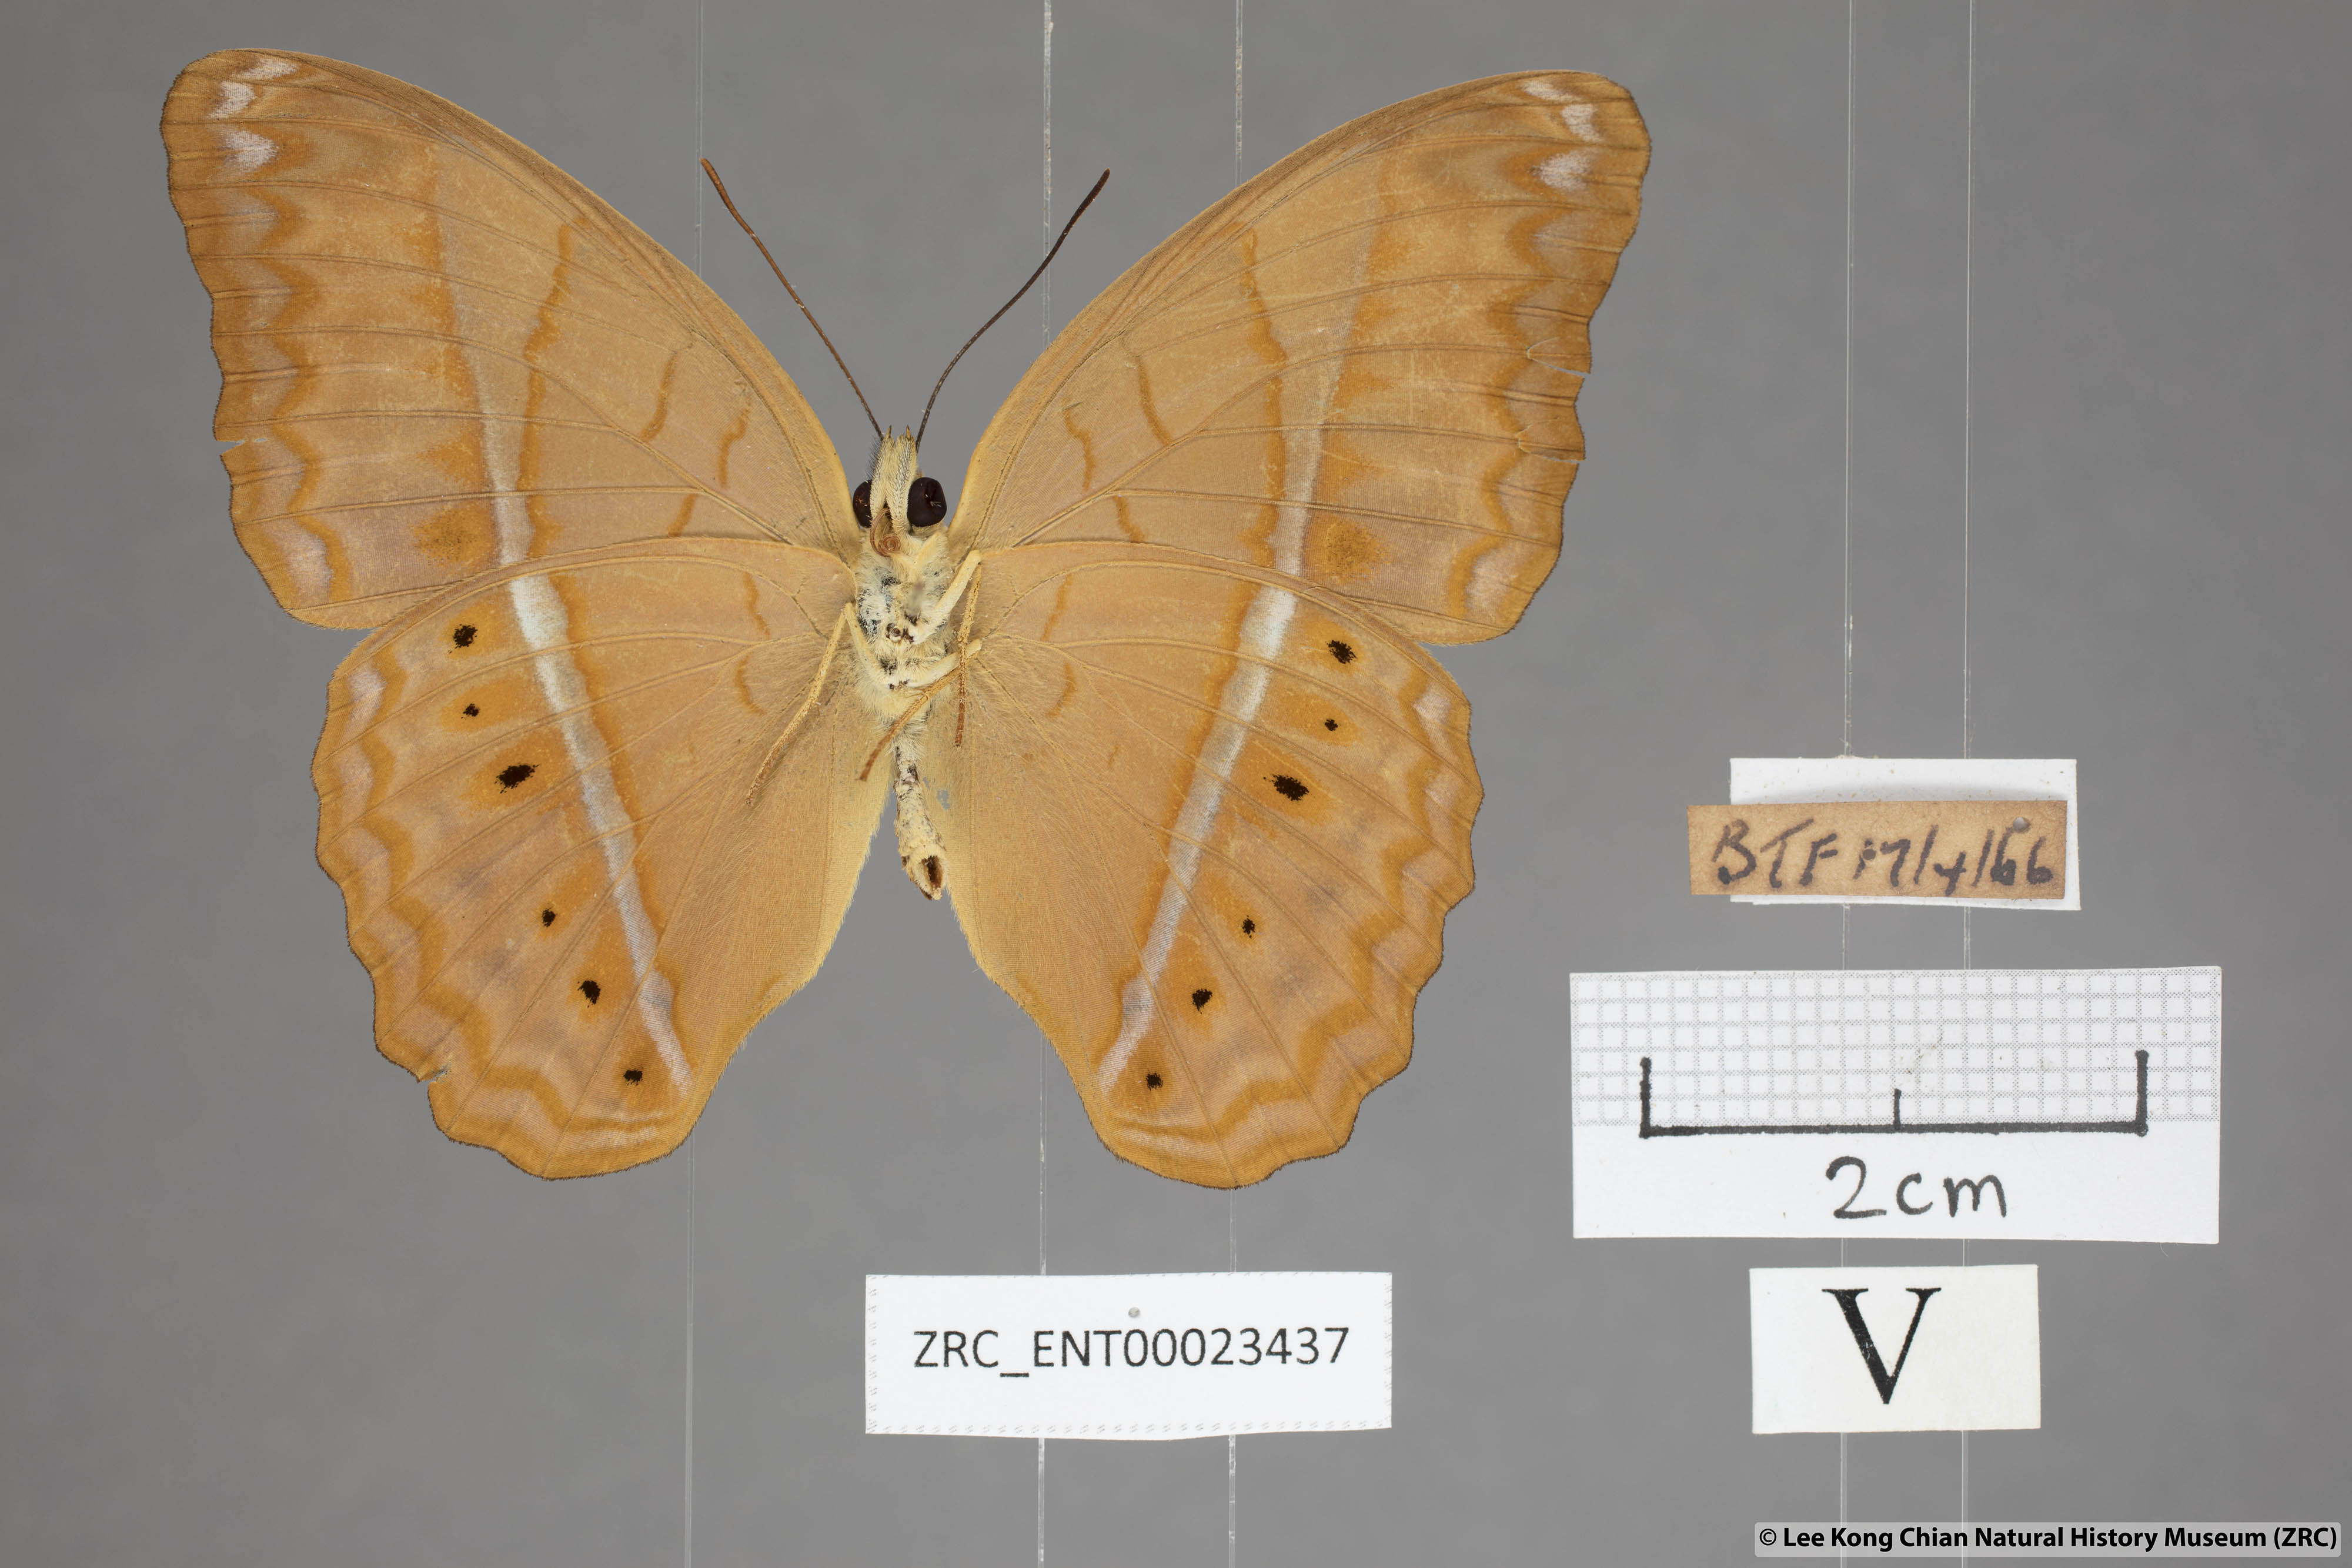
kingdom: Animalia
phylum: Arthropoda
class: Insecta
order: Lepidoptera
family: Nymphalidae
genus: Cirrochroa
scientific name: Cirrochroa malaya
